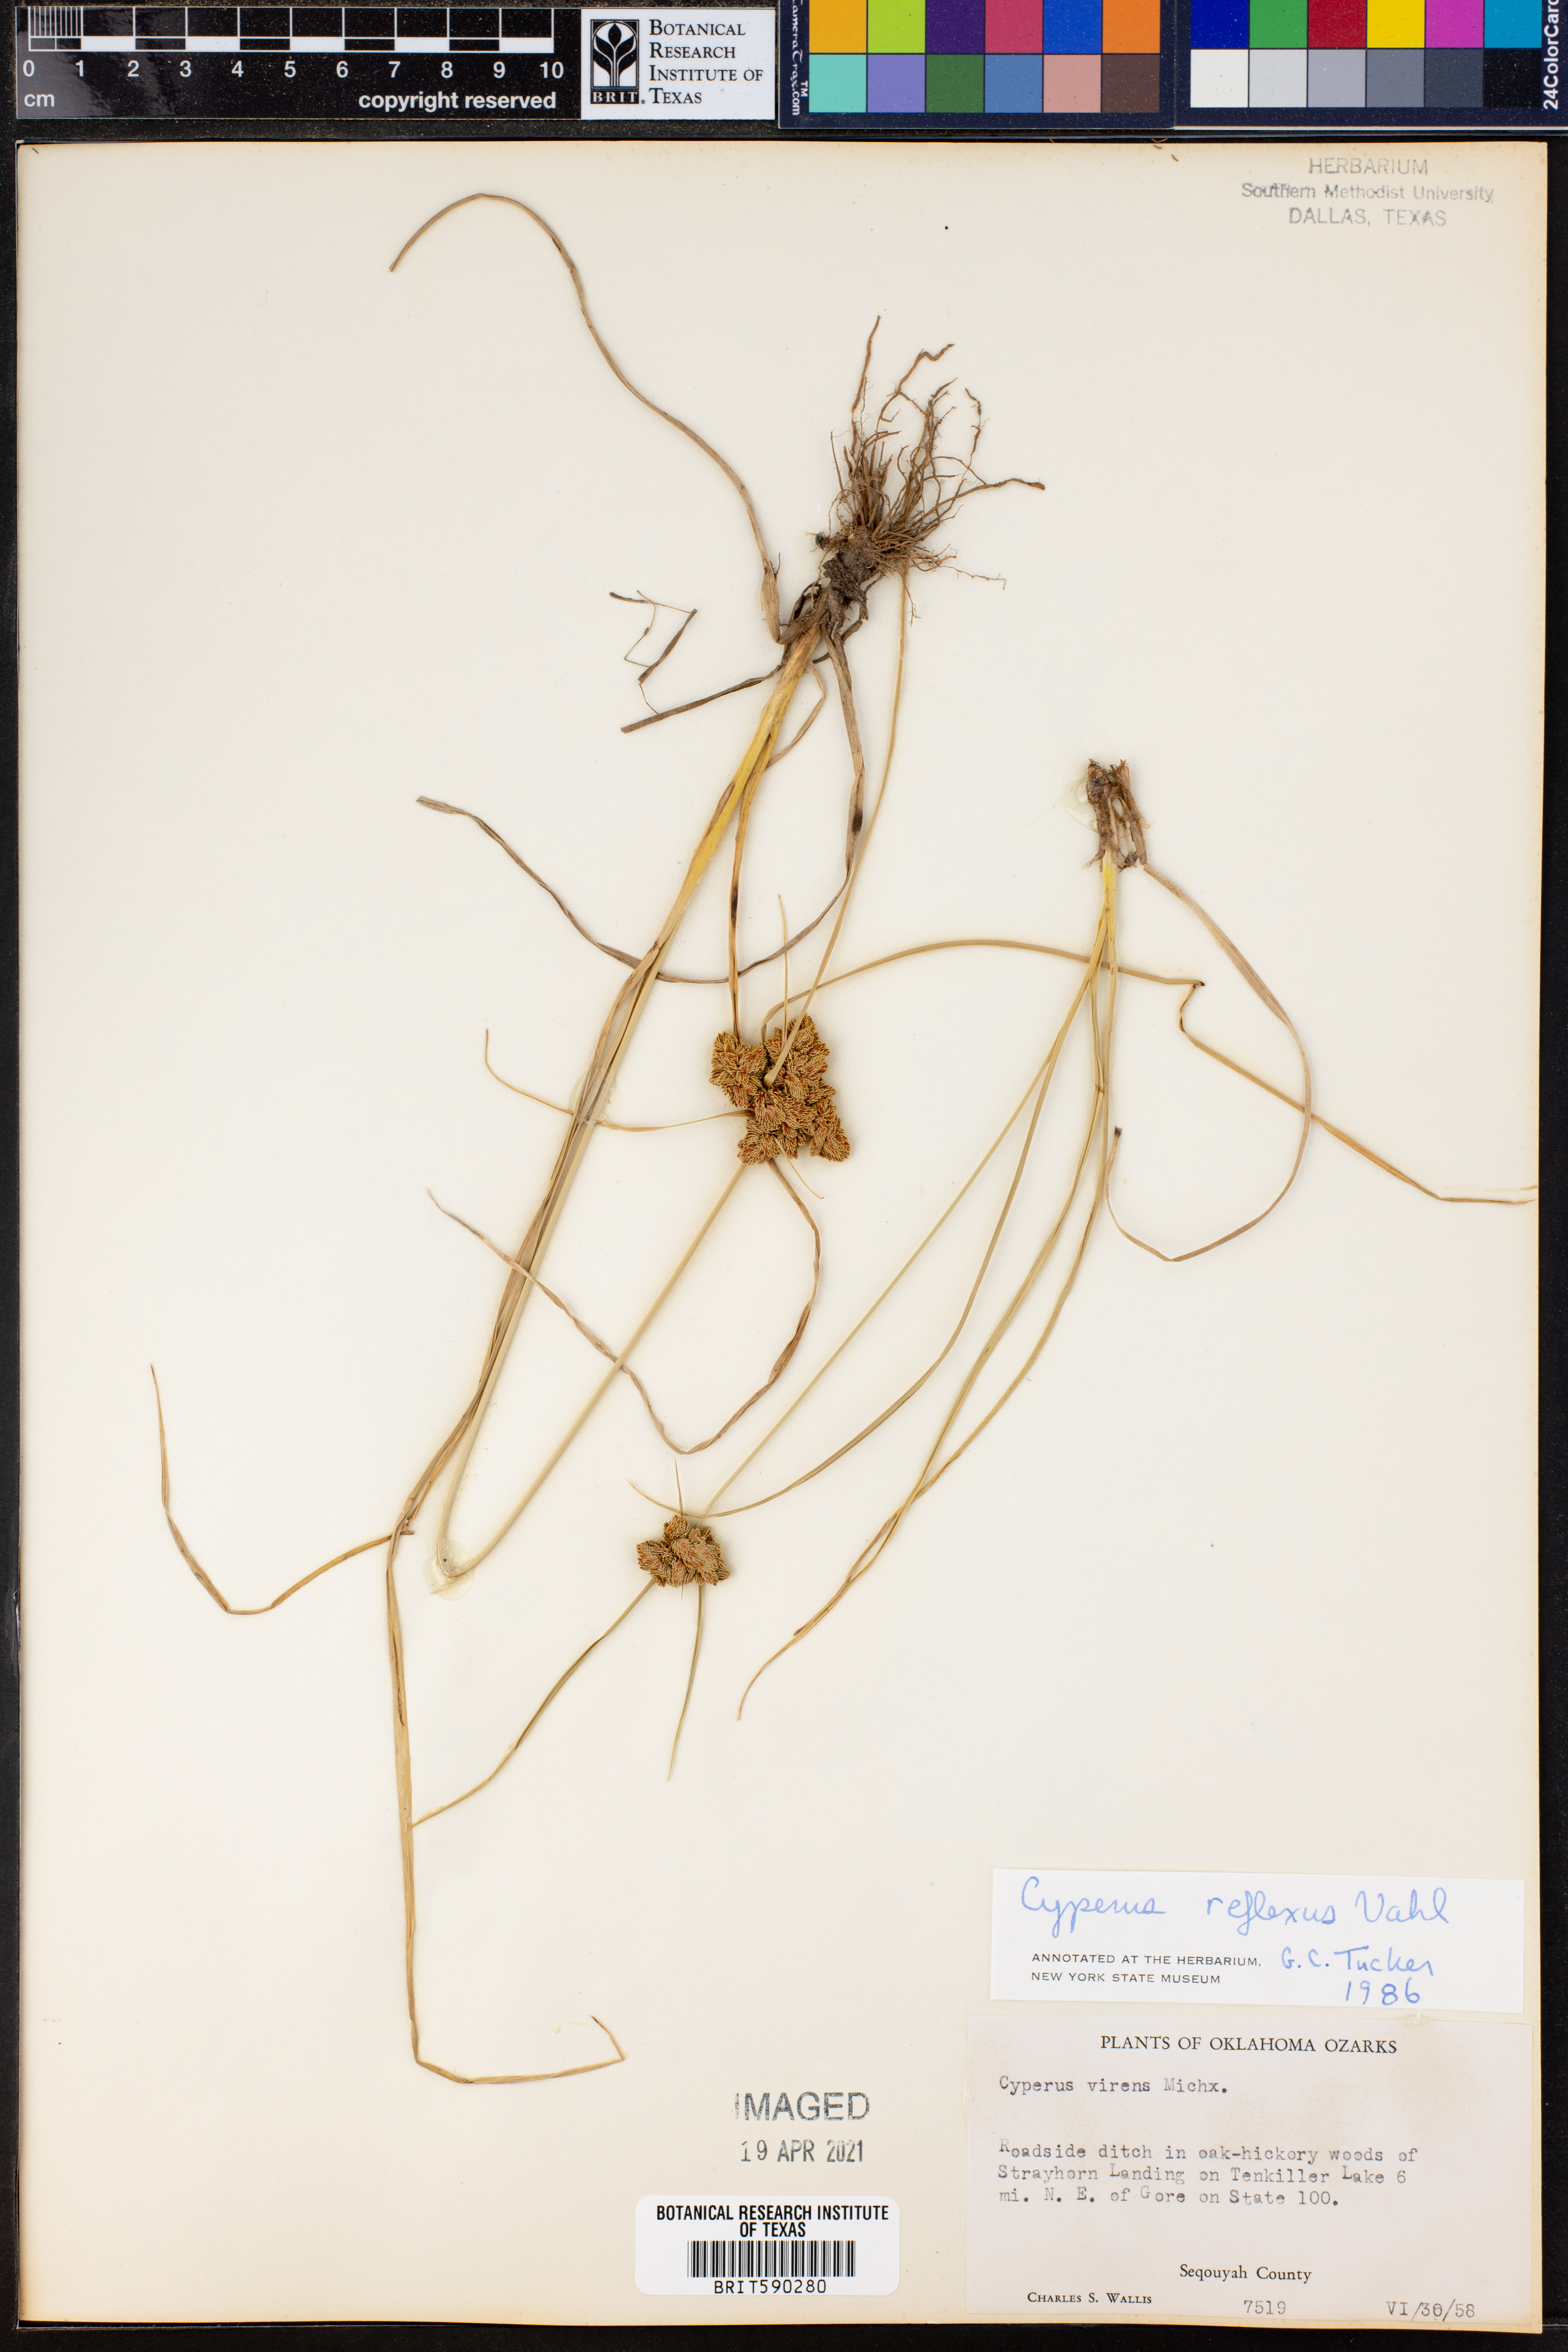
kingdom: Plantae
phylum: Tracheophyta
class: Liliopsida
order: Poales
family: Cyperaceae
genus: Cyperus
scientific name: Cyperus reflexus
